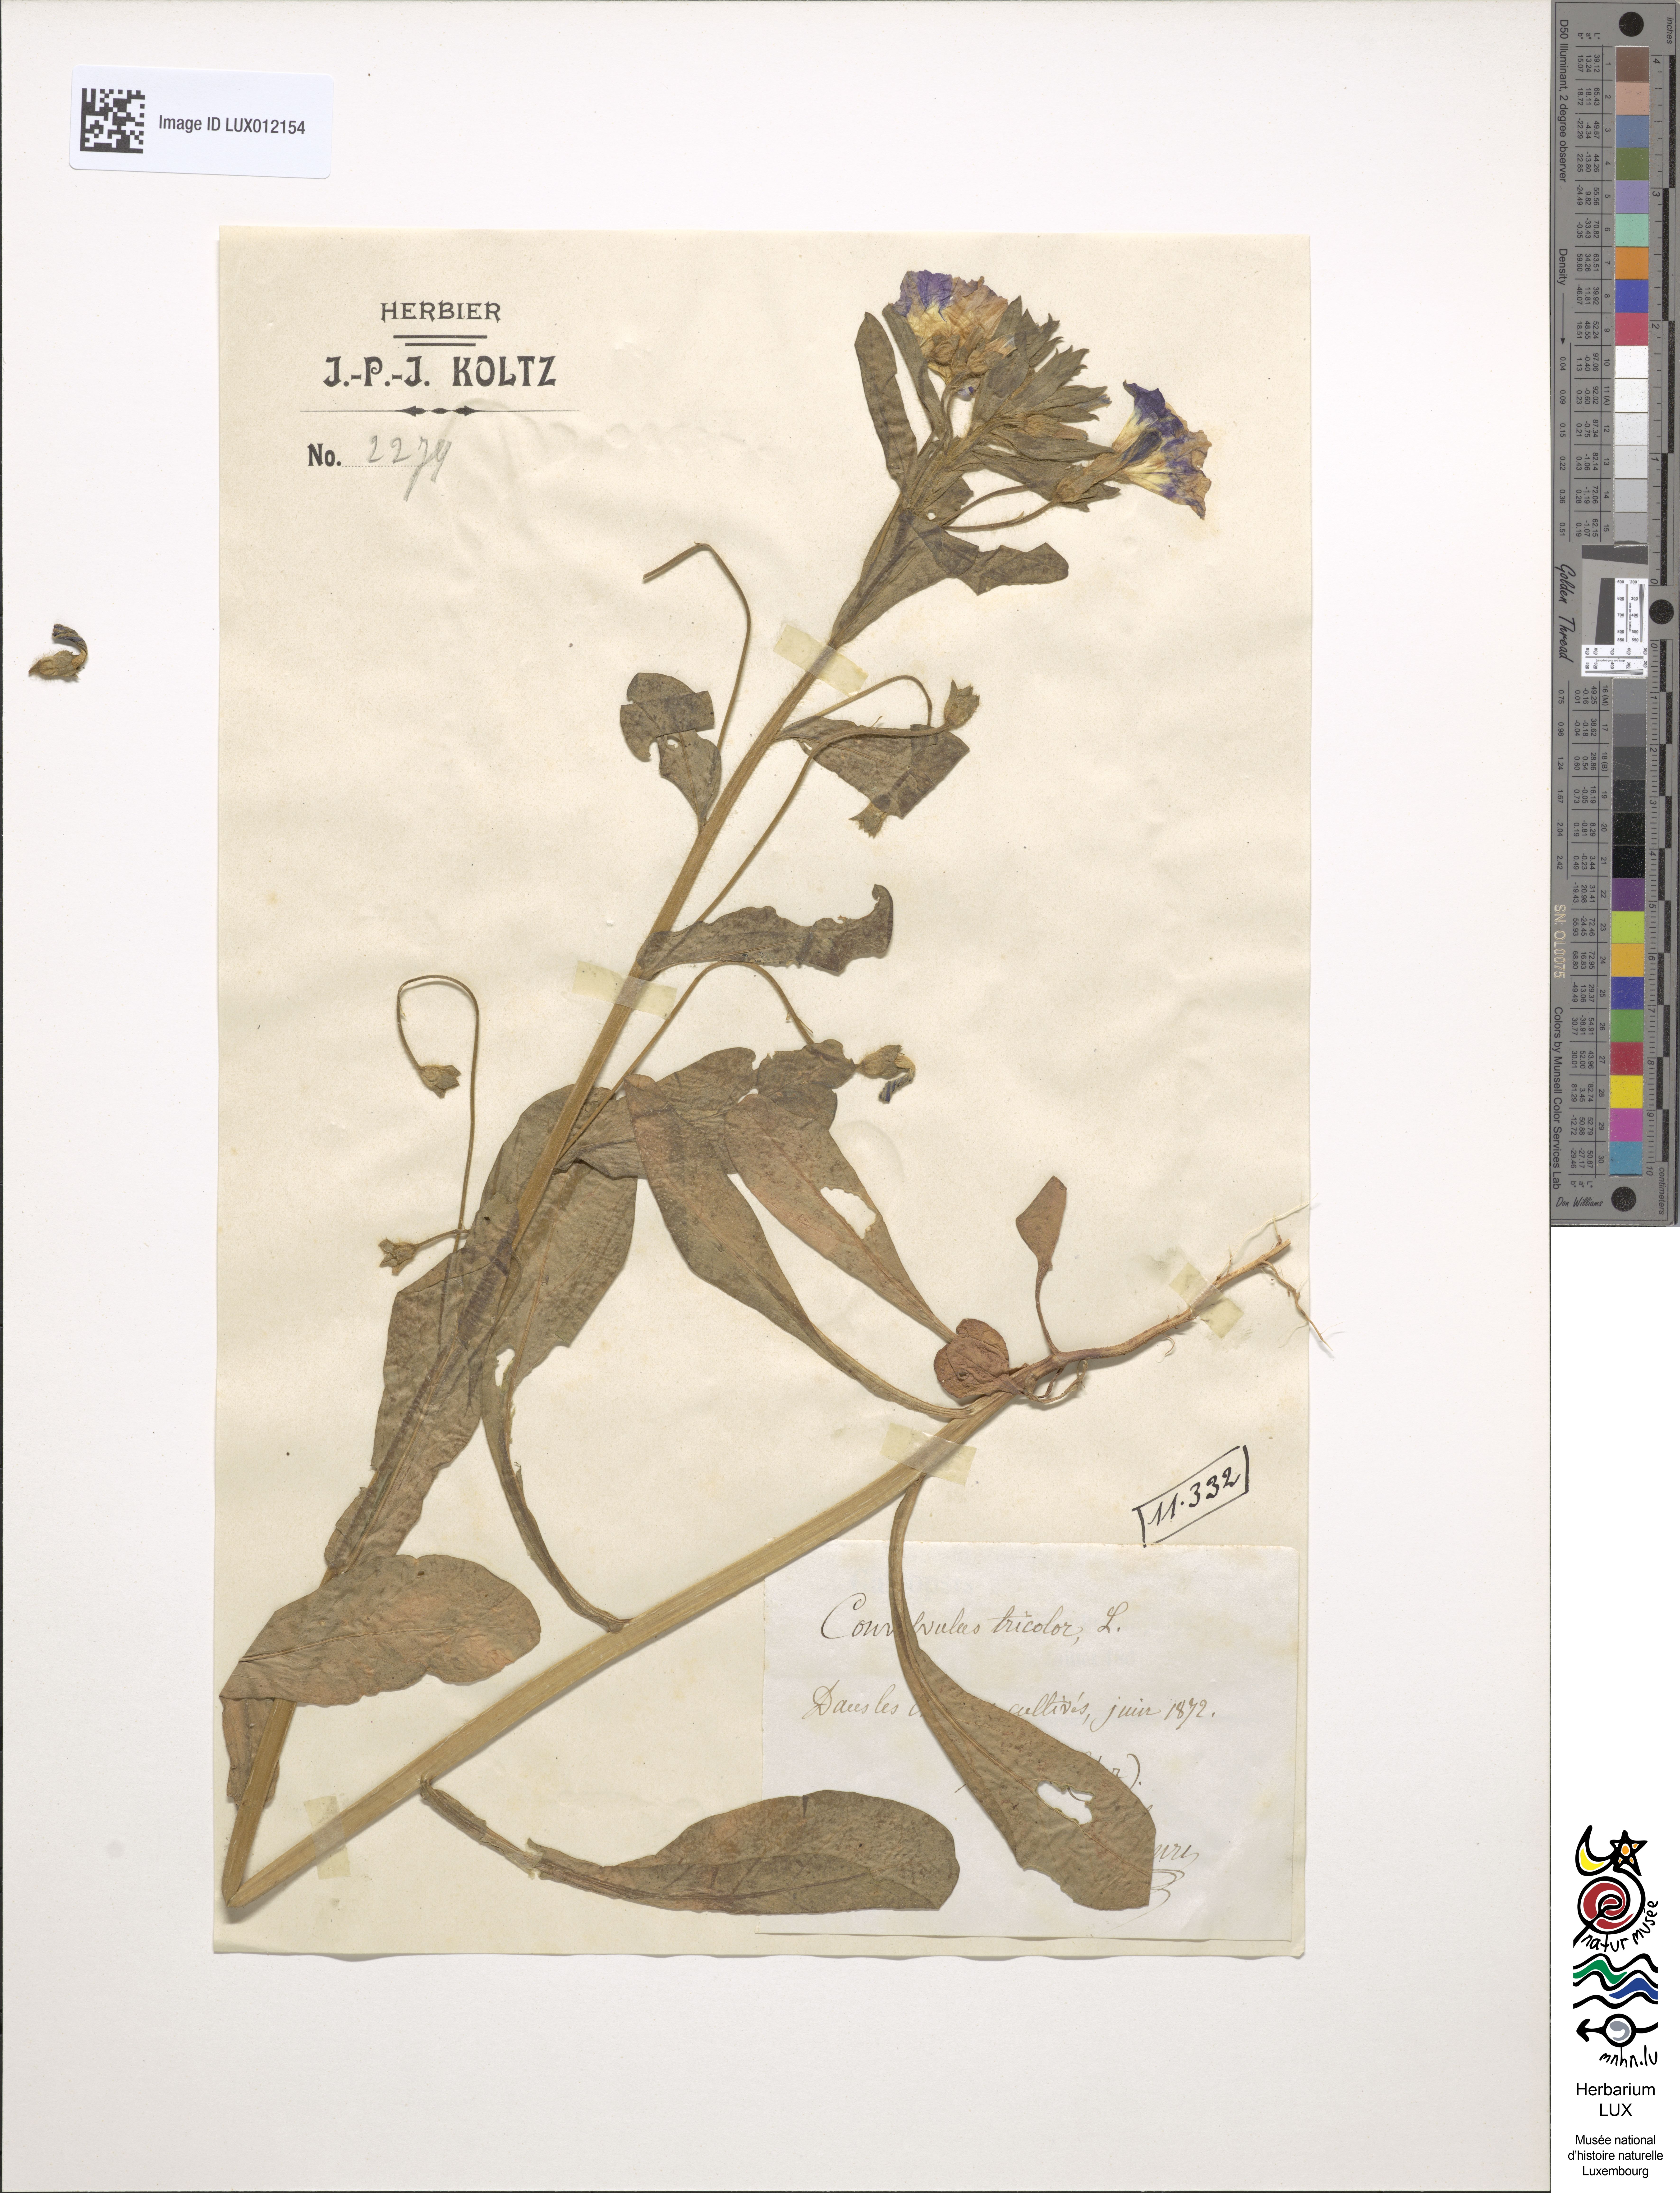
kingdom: Plantae
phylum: Tracheophyta
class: Magnoliopsida
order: Solanales
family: Convolvulaceae
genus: Convolvulus
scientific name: Convolvulus tricolor
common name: Dwarf morning-glory
